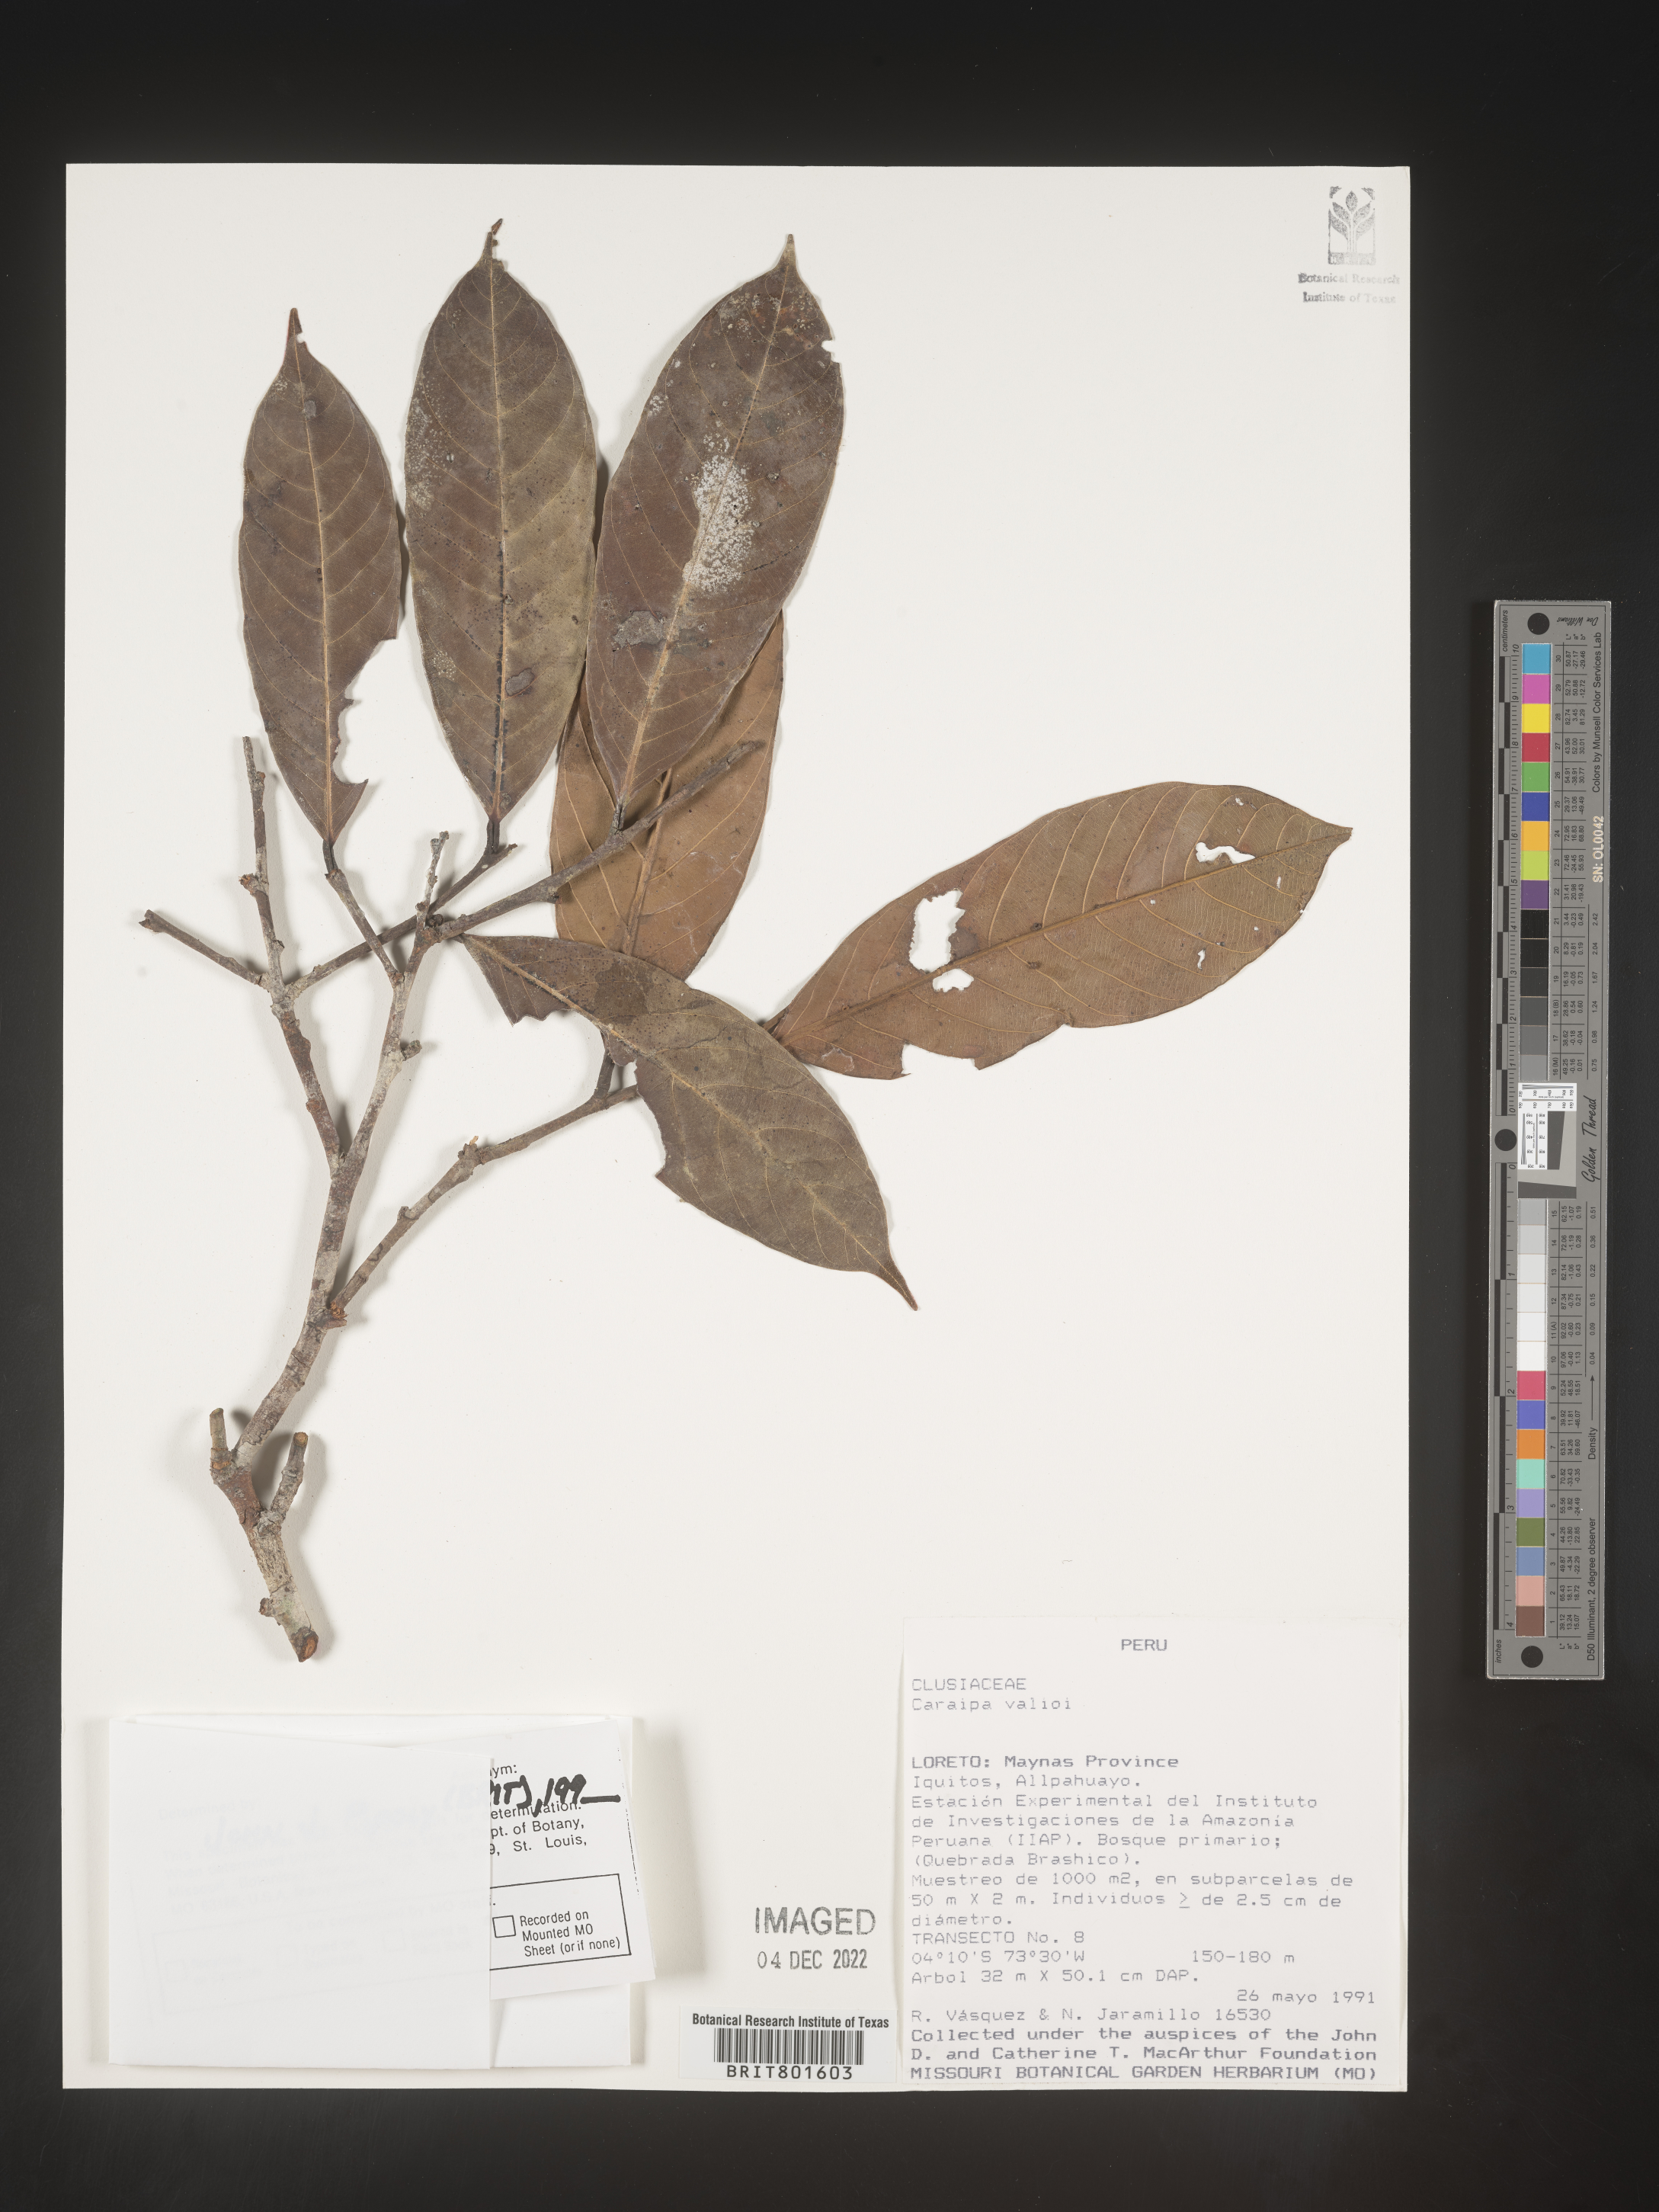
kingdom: Plantae
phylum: Tracheophyta
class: Magnoliopsida
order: Malpighiales
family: Calophyllaceae
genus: Caraipa
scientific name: Caraipa valioi
